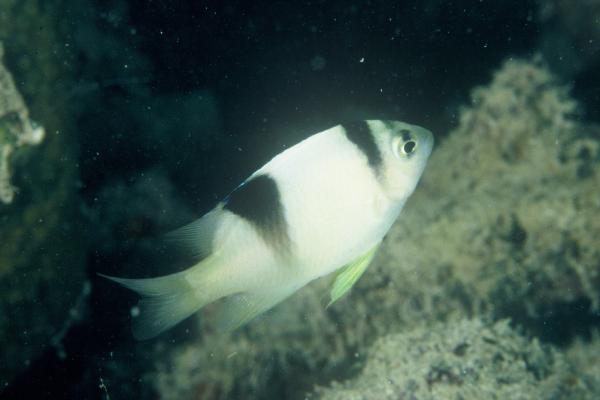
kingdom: Animalia
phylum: Chordata
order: Perciformes
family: Pomacentridae
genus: Dischistodus
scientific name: Dischistodus perspicillatus
